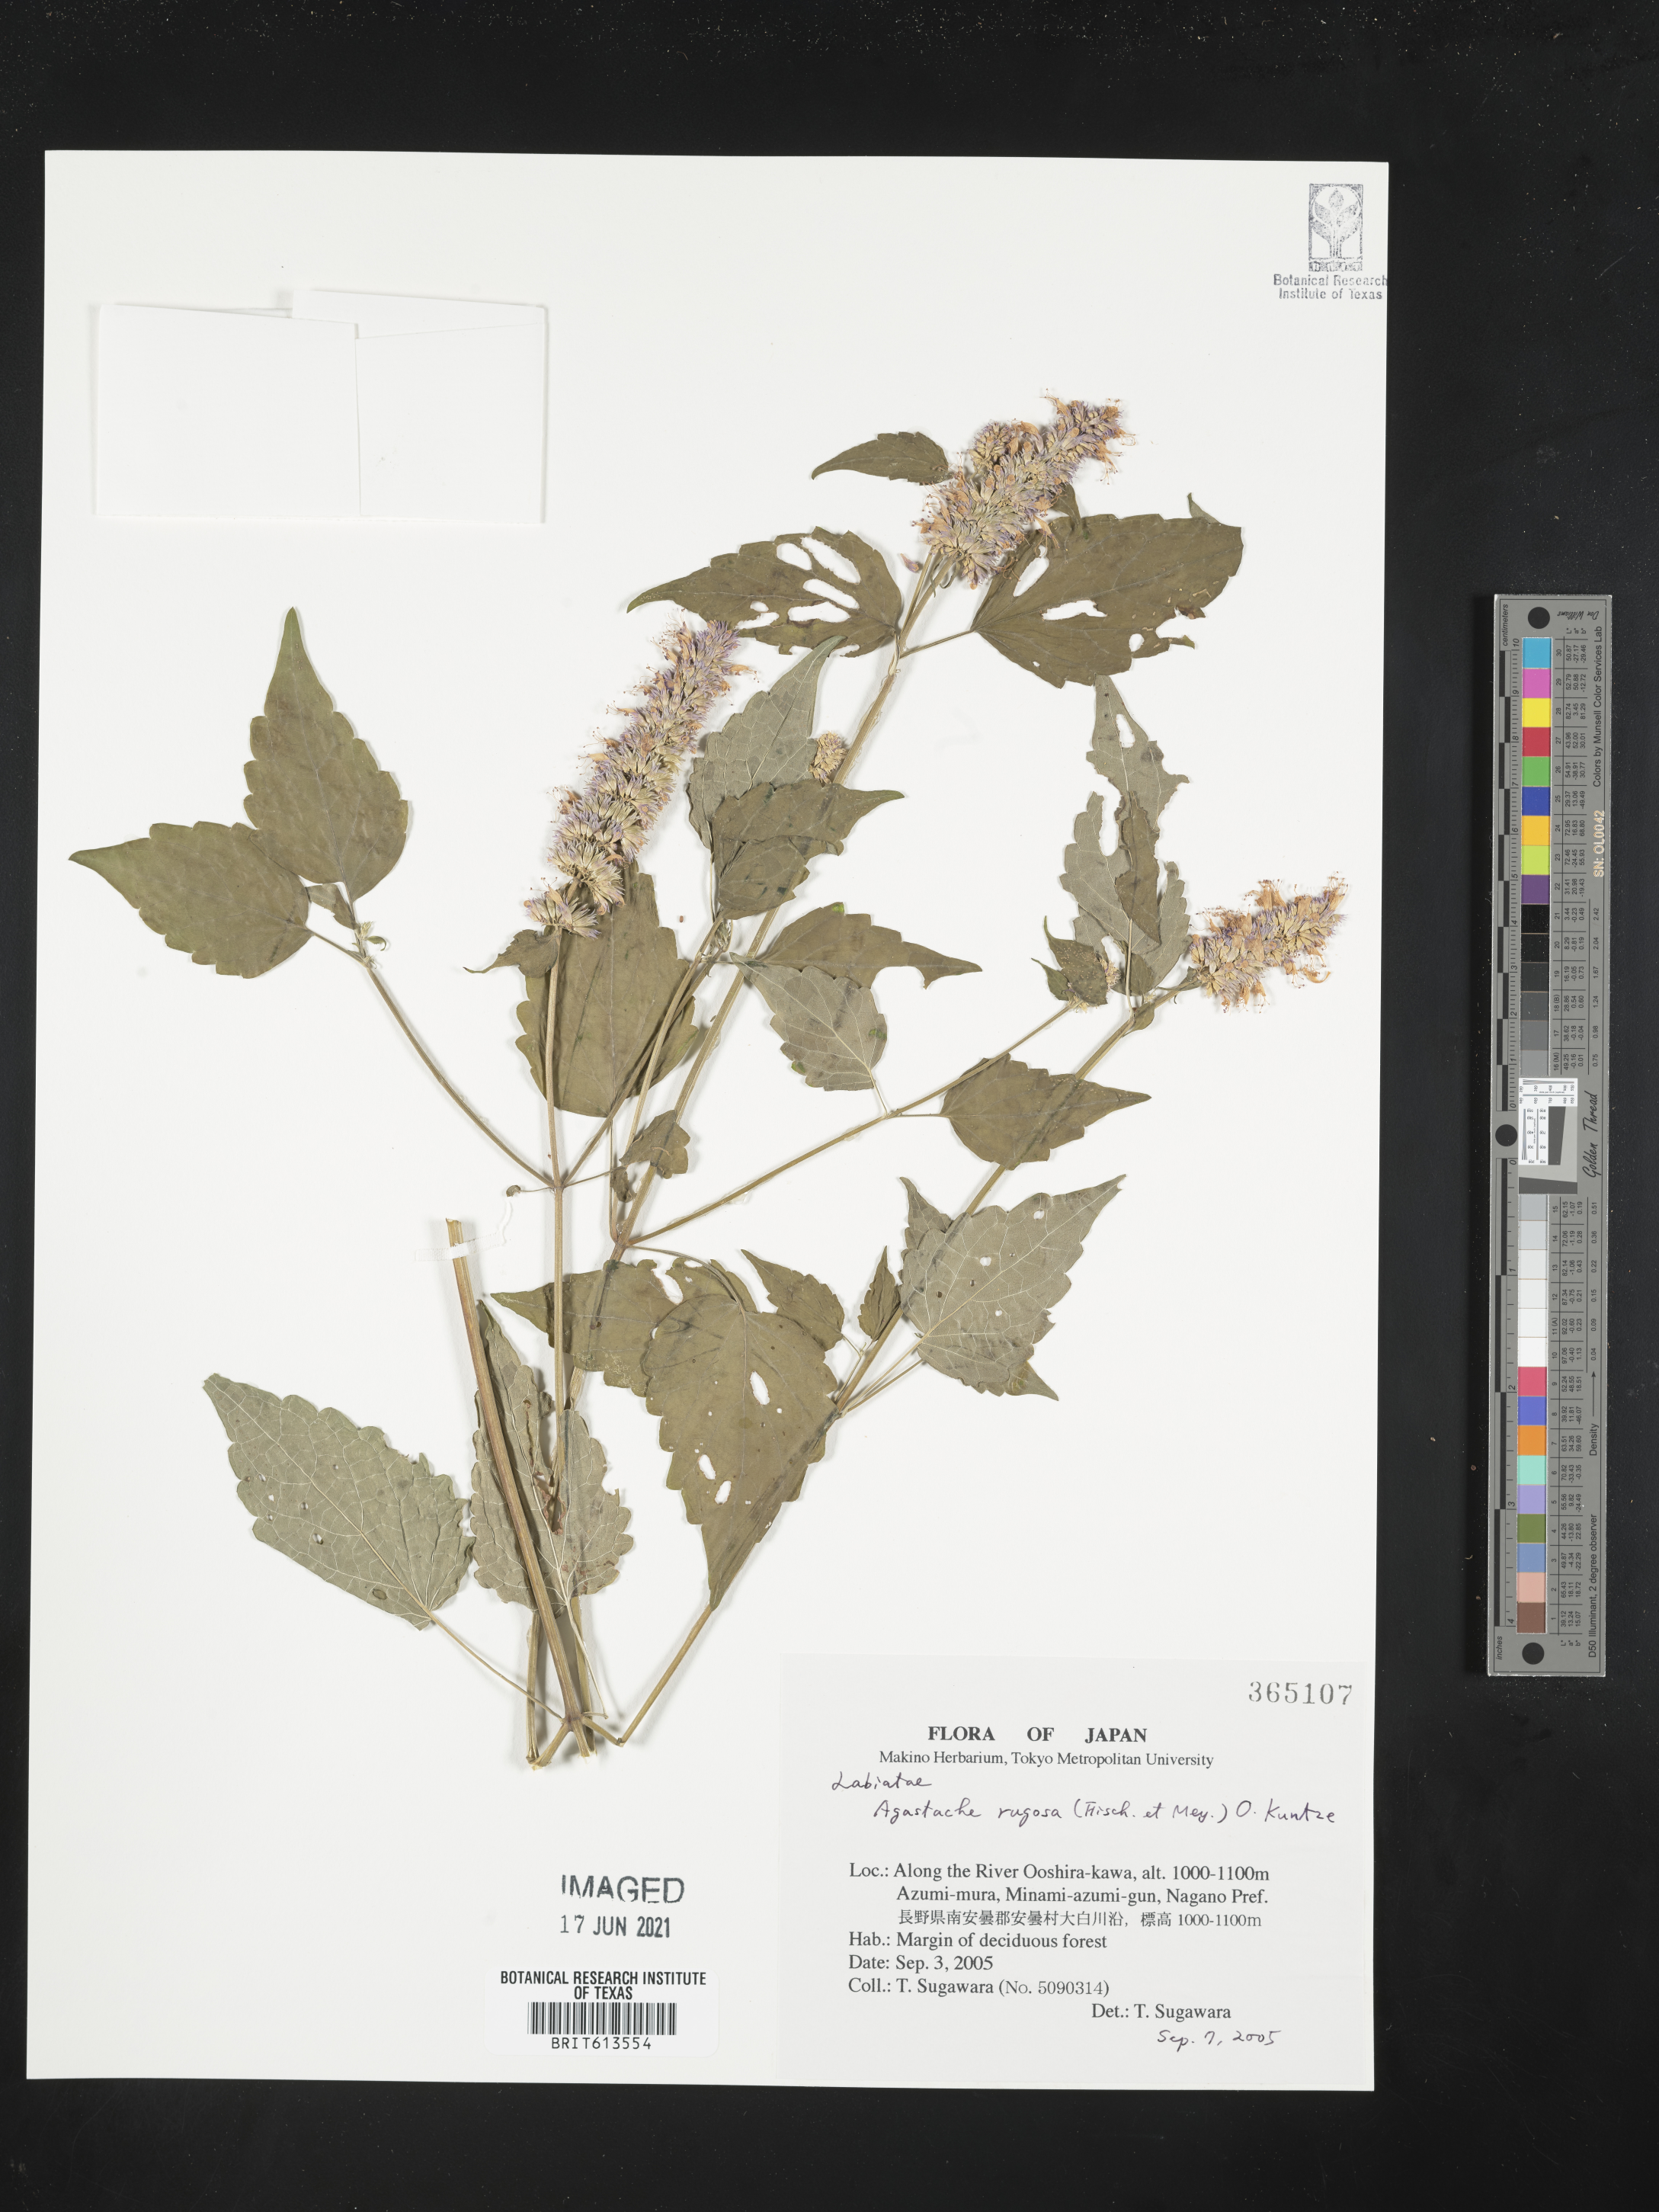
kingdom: Plantae
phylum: Tracheophyta
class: Magnoliopsida
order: Lamiales
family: Lamiaceae
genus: Agastache
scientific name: Agastache rugosa
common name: Mint
